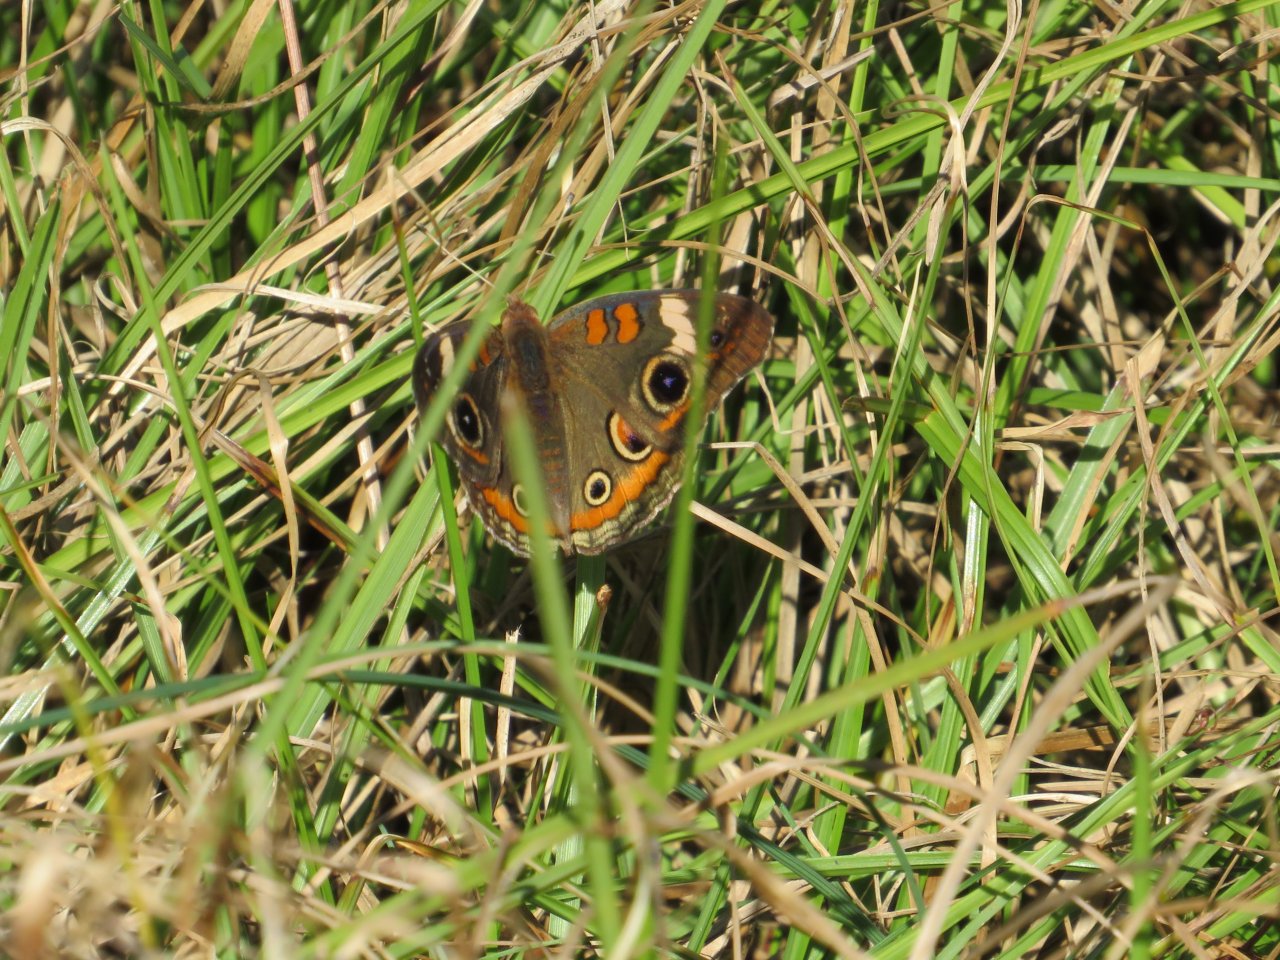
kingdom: Animalia
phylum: Arthropoda
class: Insecta
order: Lepidoptera
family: Nymphalidae
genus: Junonia
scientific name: Junonia coenia
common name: Common Buckeye
